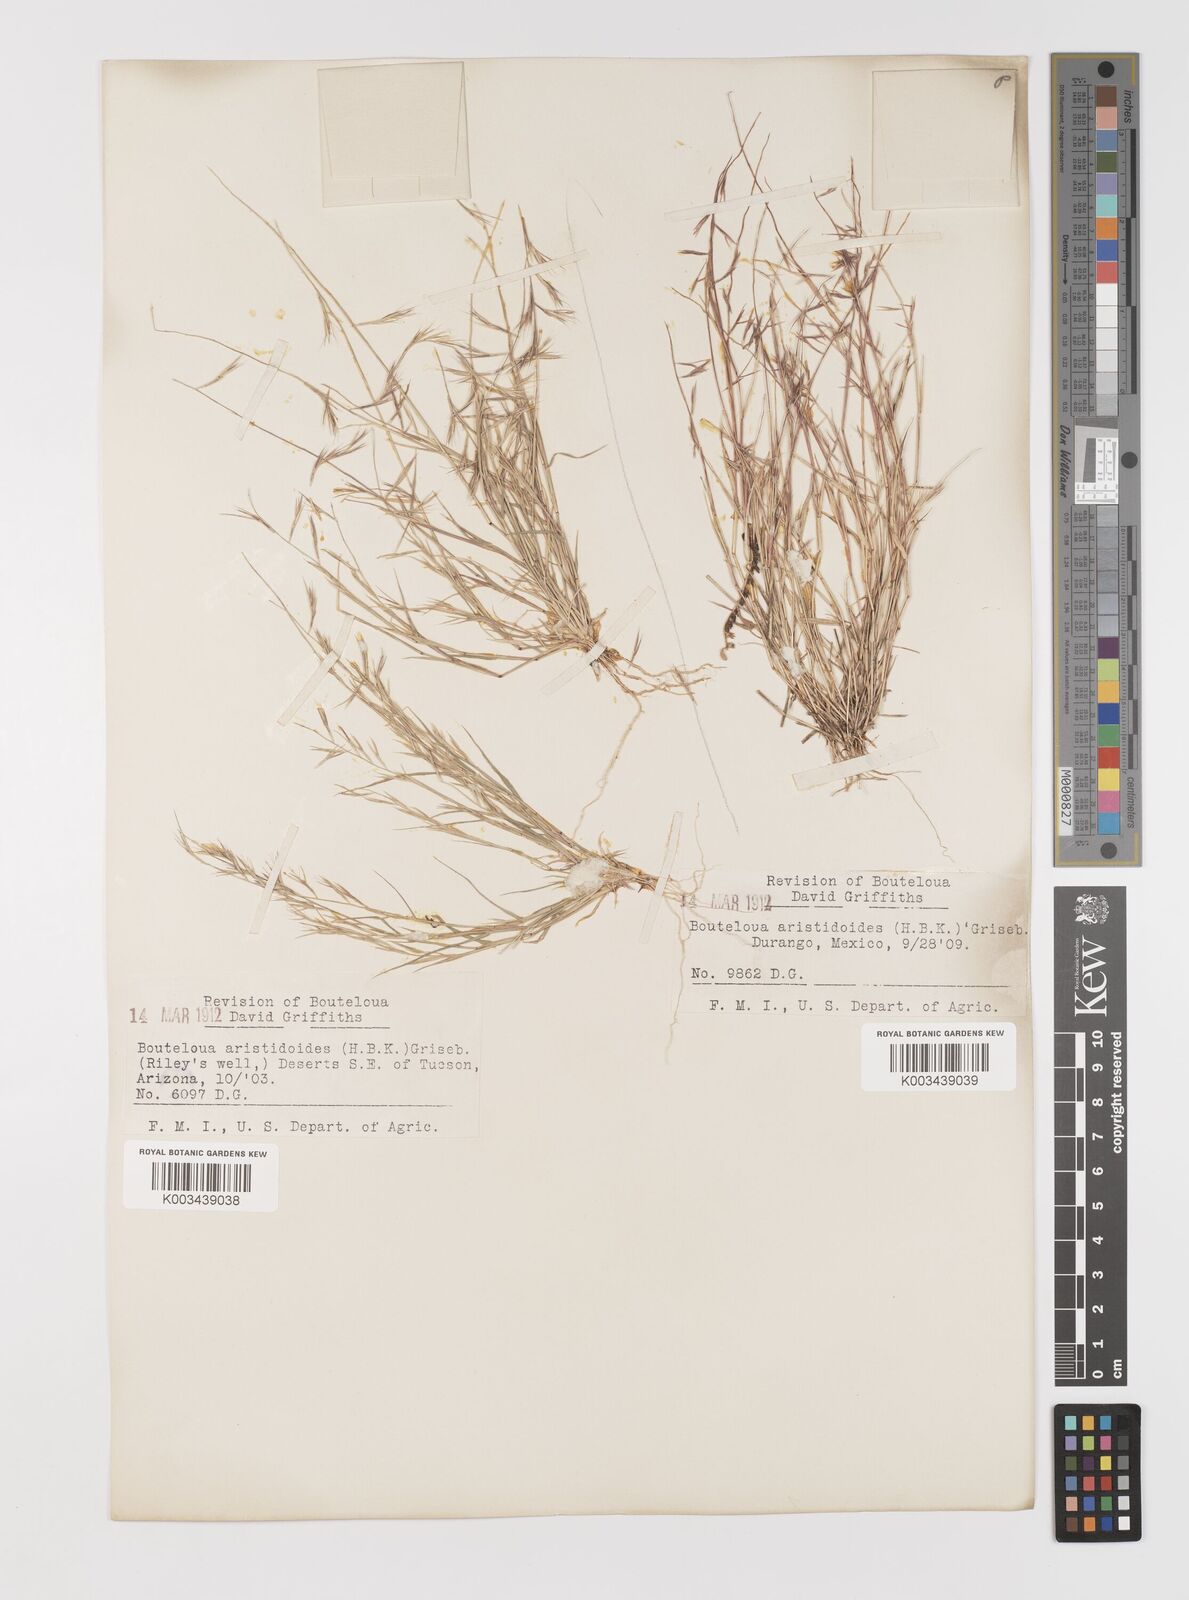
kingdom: Plantae
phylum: Tracheophyta
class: Liliopsida
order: Poales
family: Poaceae
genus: Bouteloua
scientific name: Bouteloua aristidoides
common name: Needle grama
